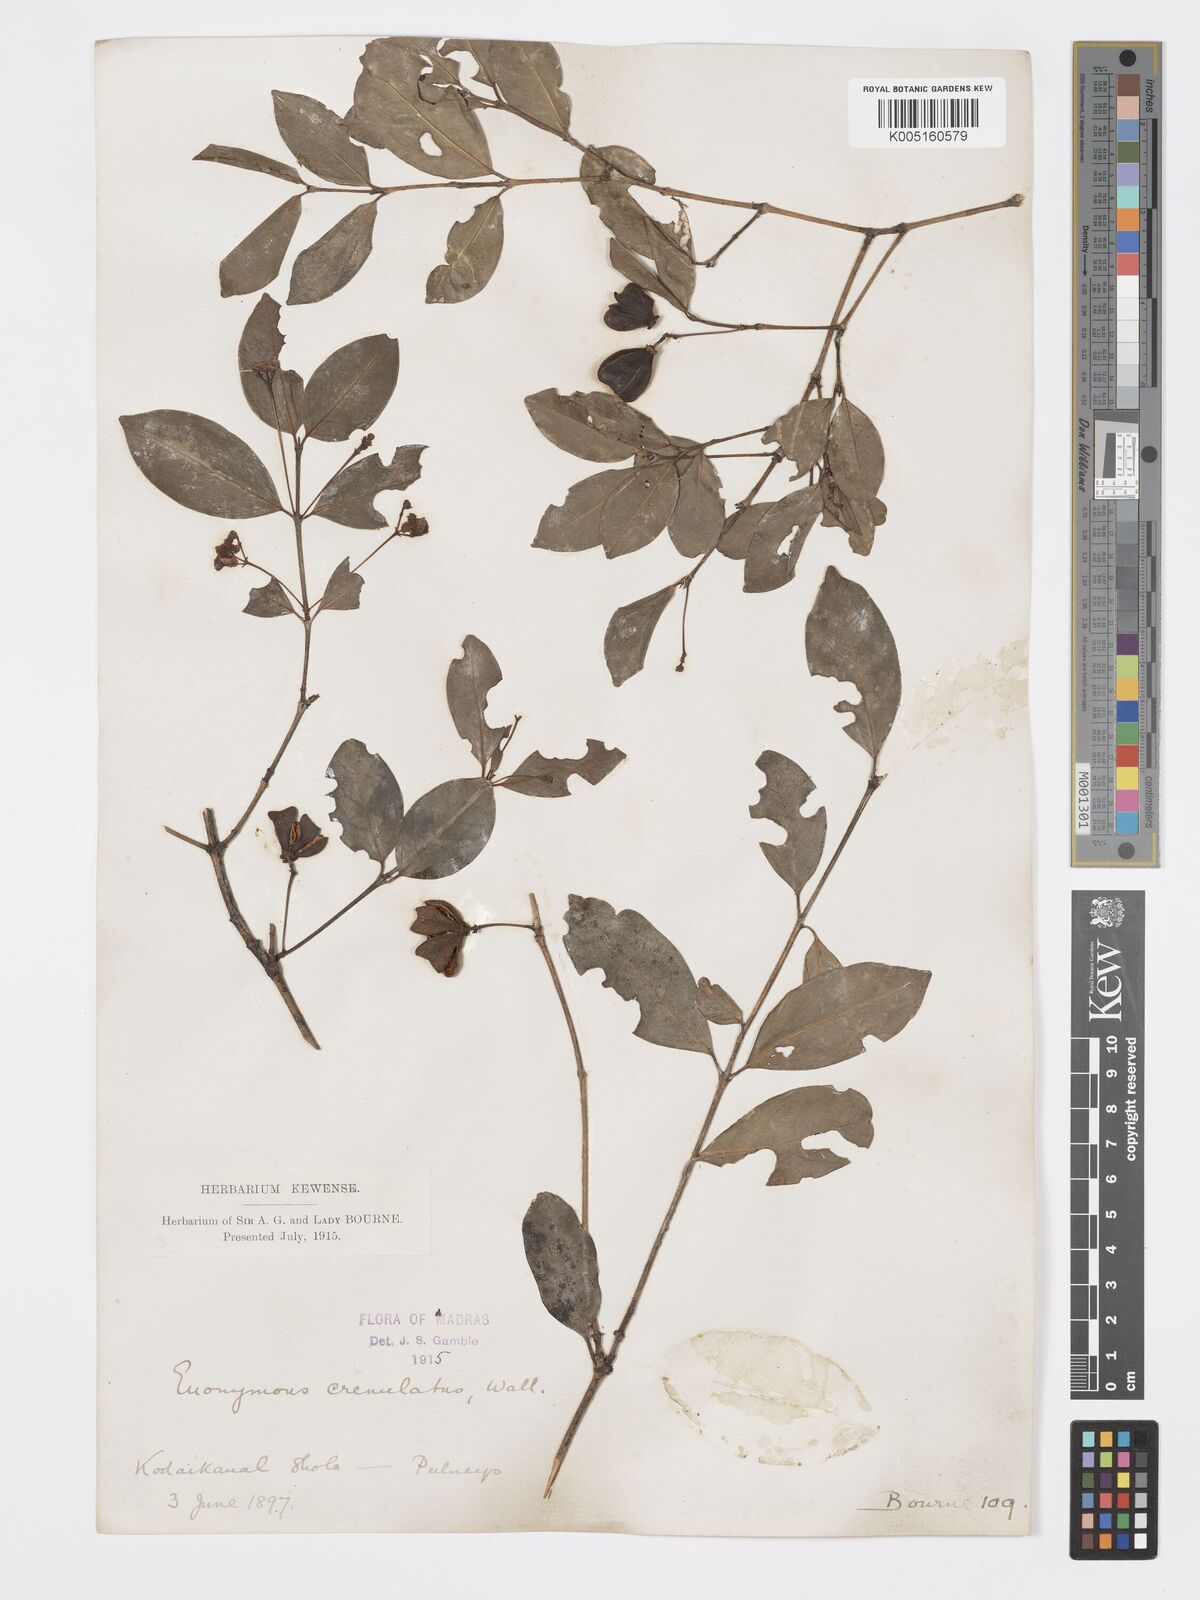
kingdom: Plantae
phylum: Tracheophyta
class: Magnoliopsida
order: Celastrales
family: Celastraceae
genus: Euonymus
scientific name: Euonymus crenulatus
